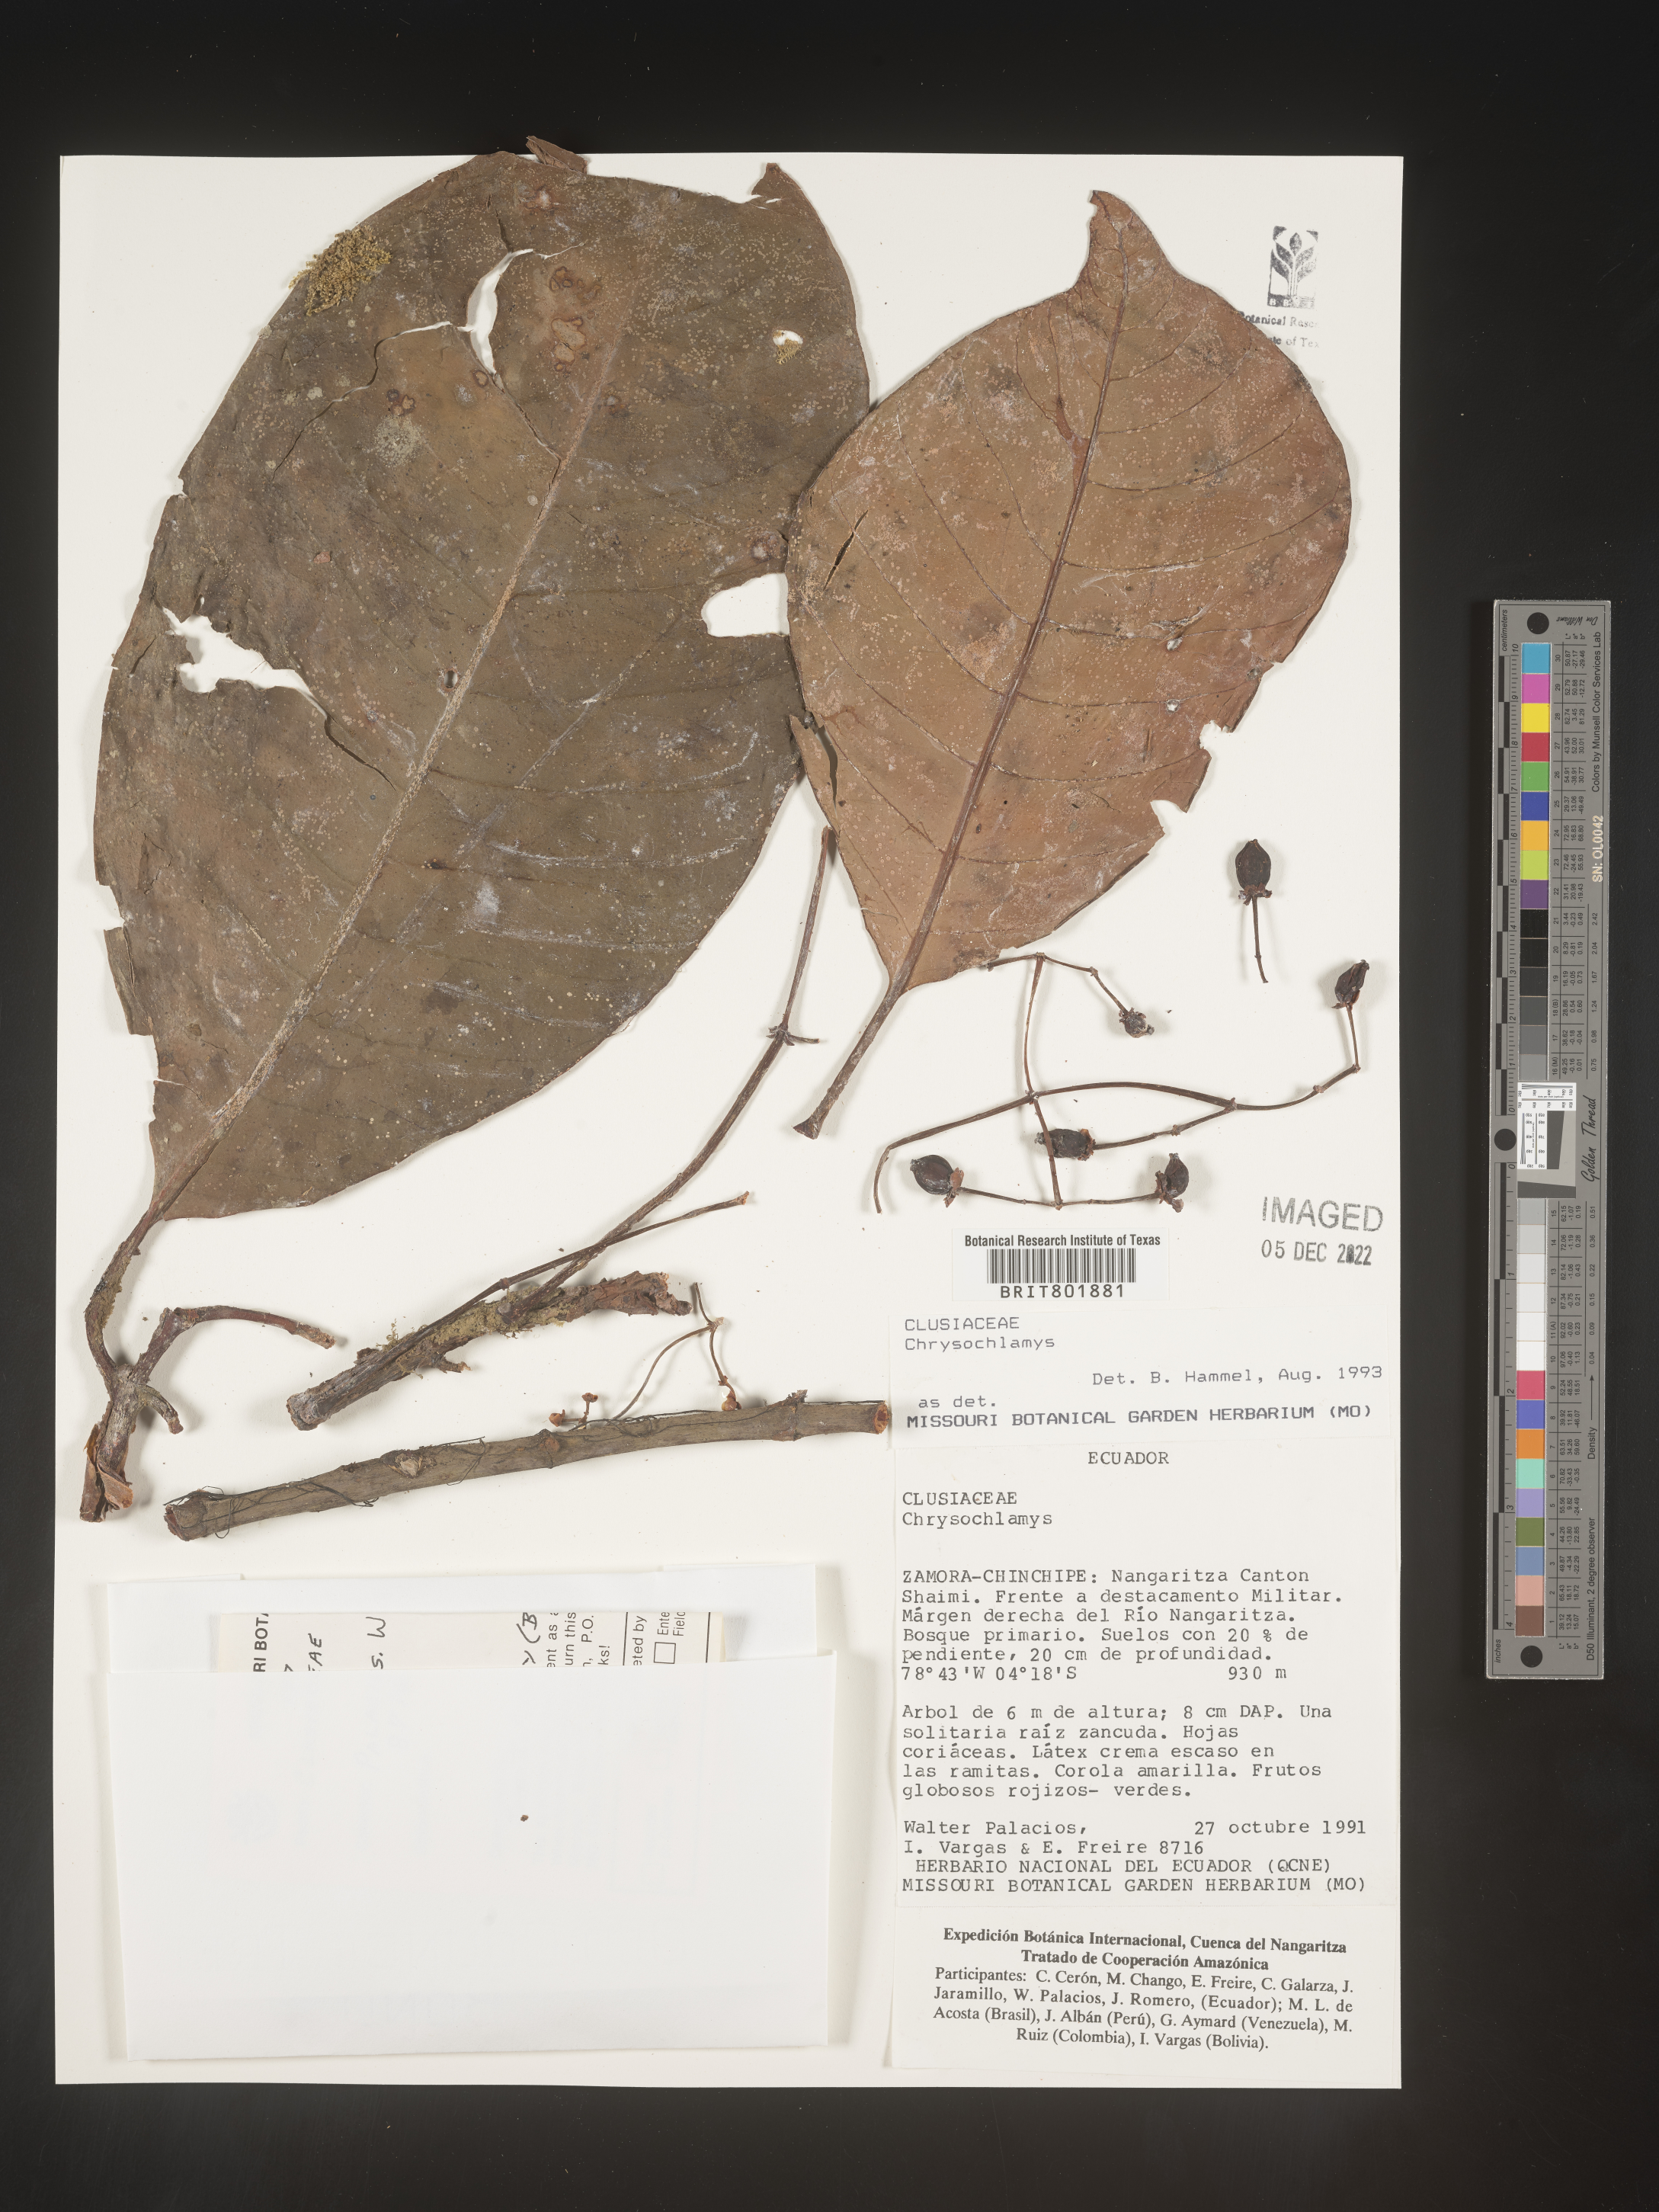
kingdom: Plantae
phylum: Tracheophyta
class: Magnoliopsida
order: Malpighiales
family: Clusiaceae
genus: Chrysochlamys
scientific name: Chrysochlamys
